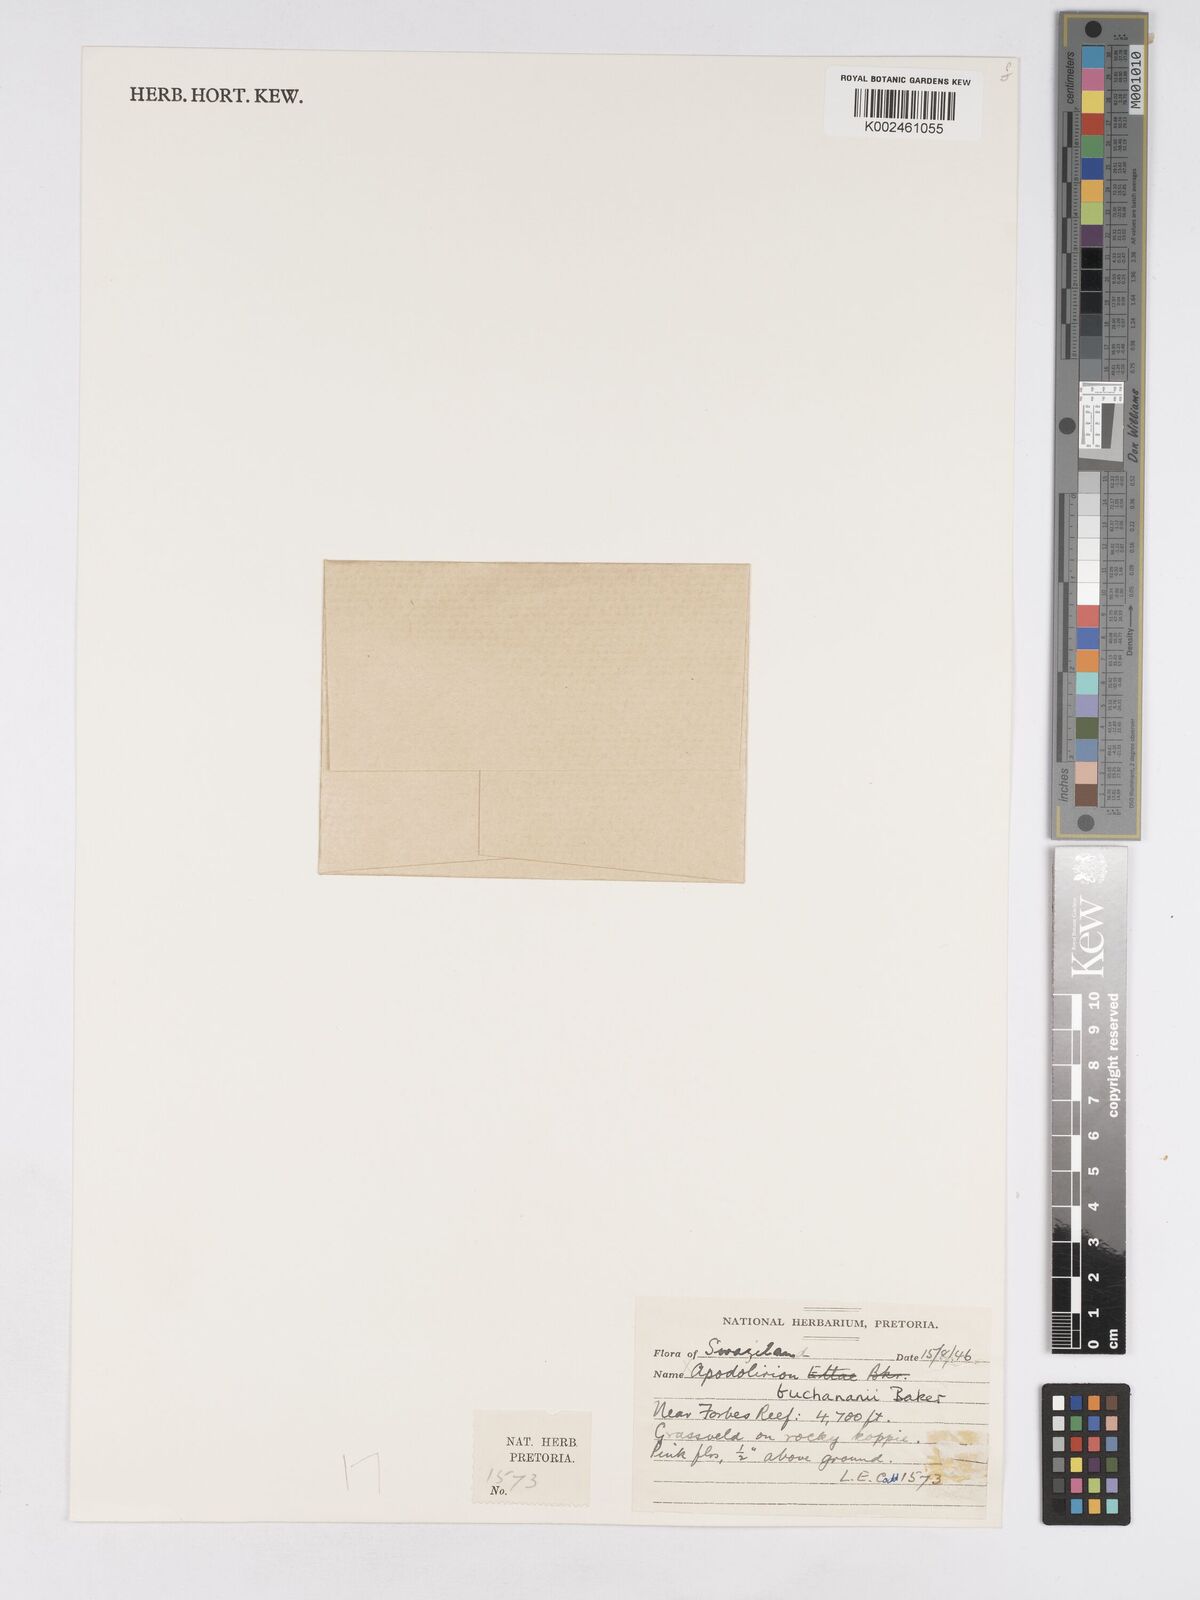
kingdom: Plantae
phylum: Tracheophyta
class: Liliopsida
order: Asparagales
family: Amaryllidaceae
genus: Apodolirion
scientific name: Apodolirion buchananii
